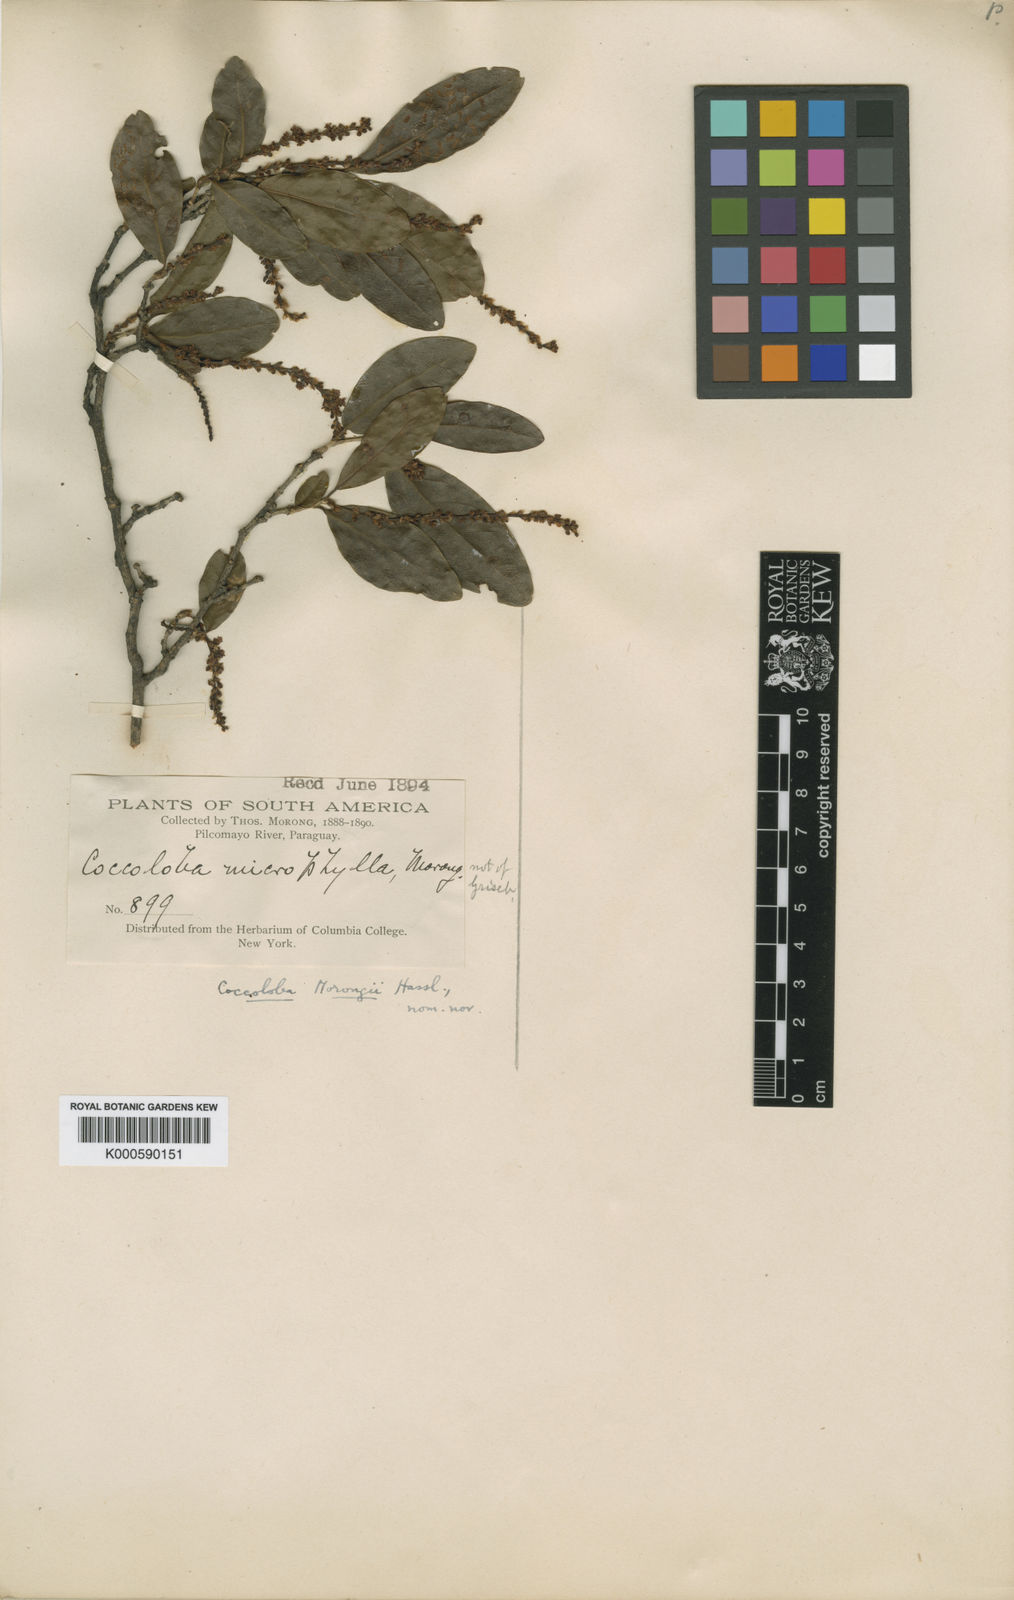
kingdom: Plantae
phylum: Tracheophyta
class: Magnoliopsida
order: Caryophyllales
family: Polygonaceae
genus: Coccoloba
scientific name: Coccoloba paraguariensis
